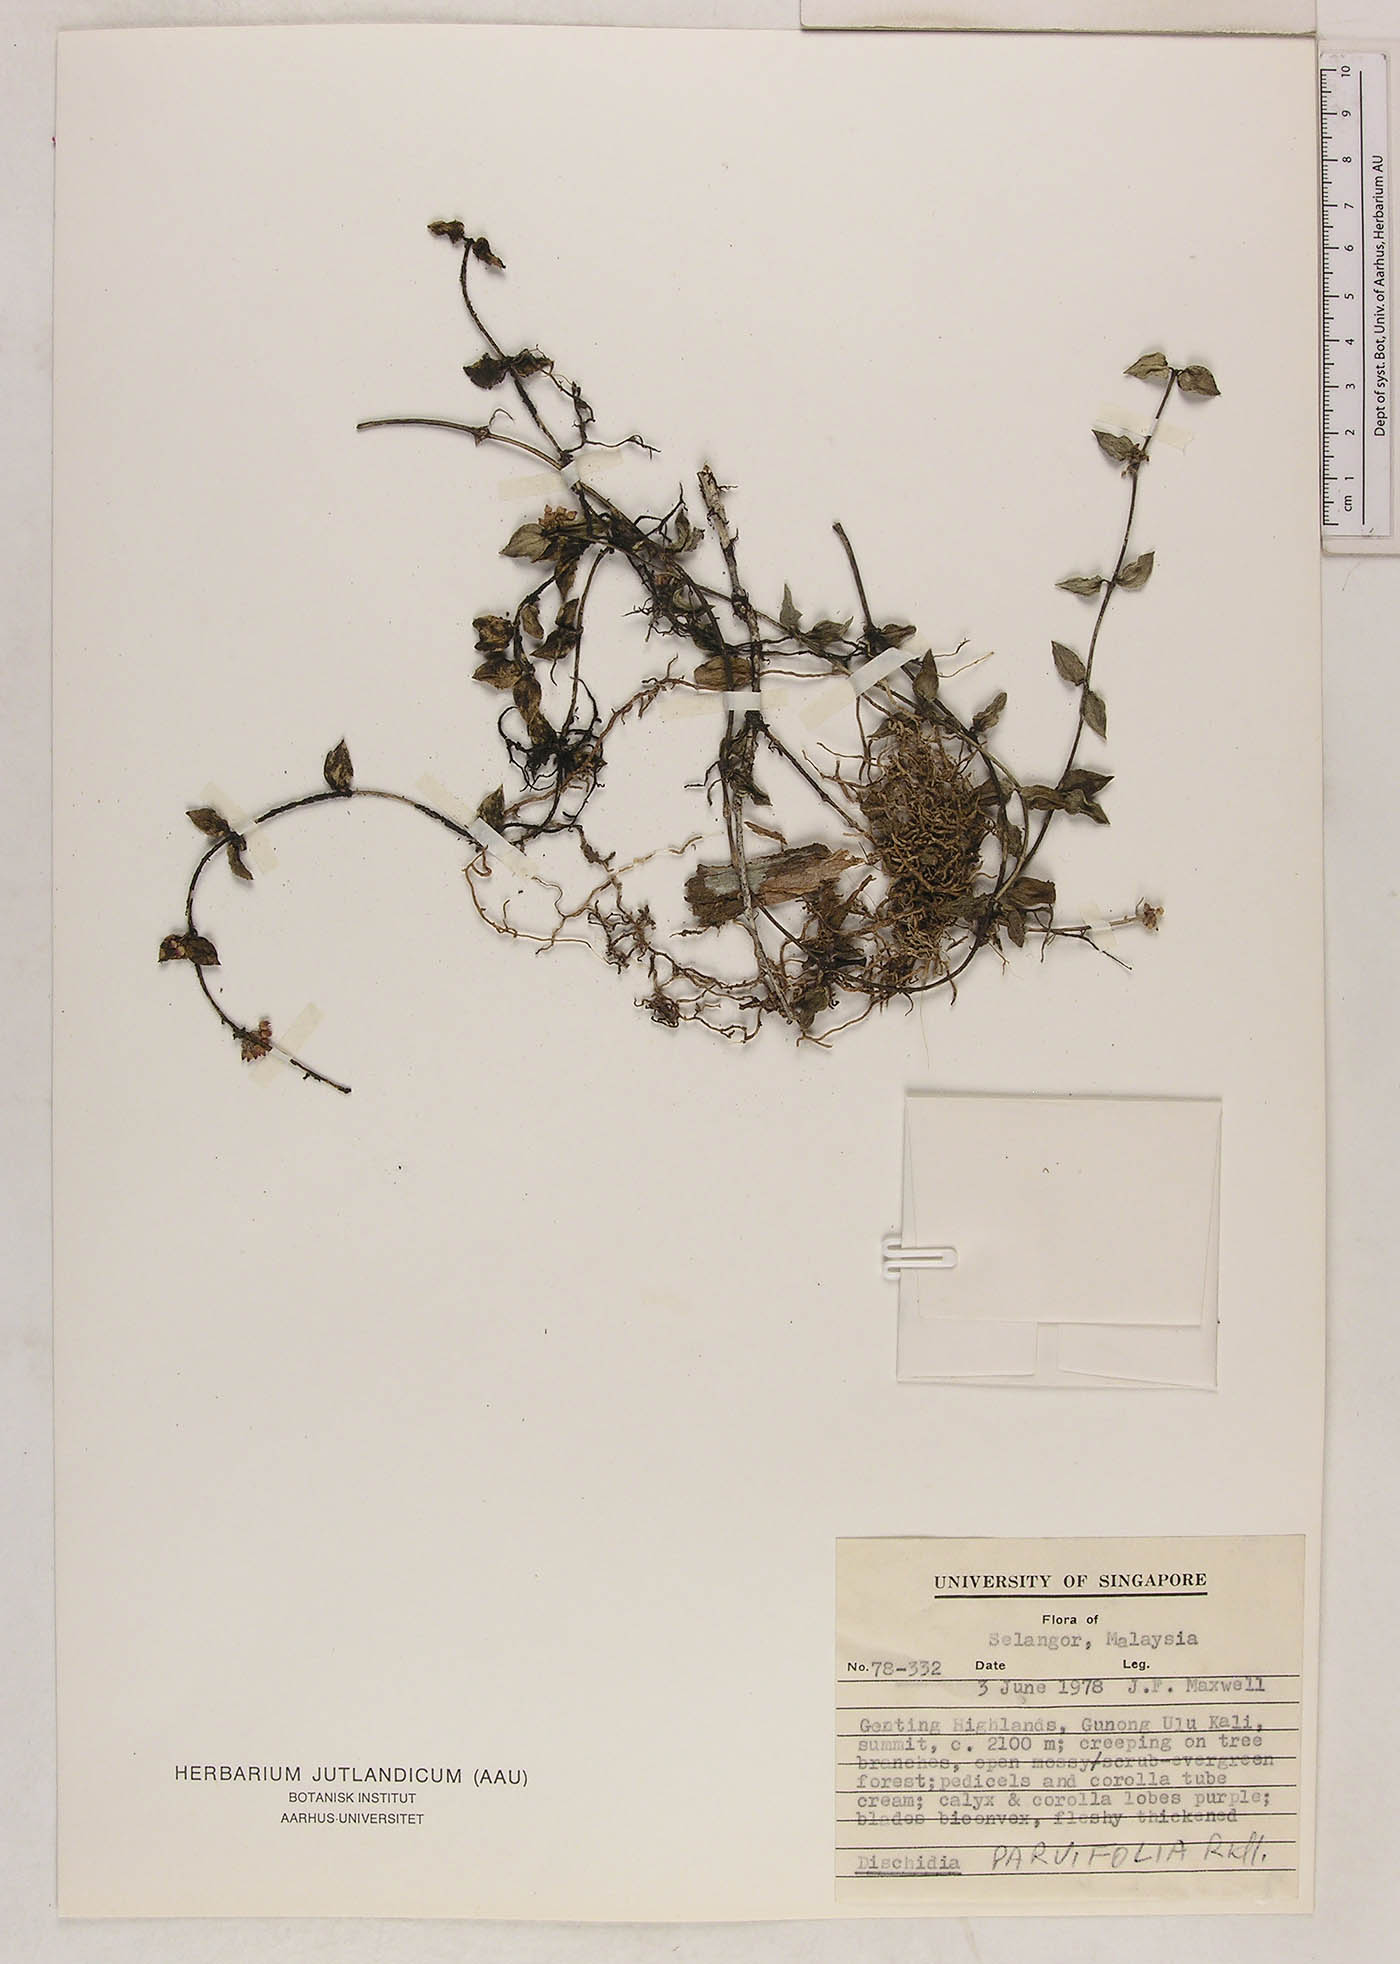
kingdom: Plantae
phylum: Tracheophyta
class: Magnoliopsida
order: Gentianales
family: Apocynaceae
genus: Dischidia
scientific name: Dischidia parvifolia
